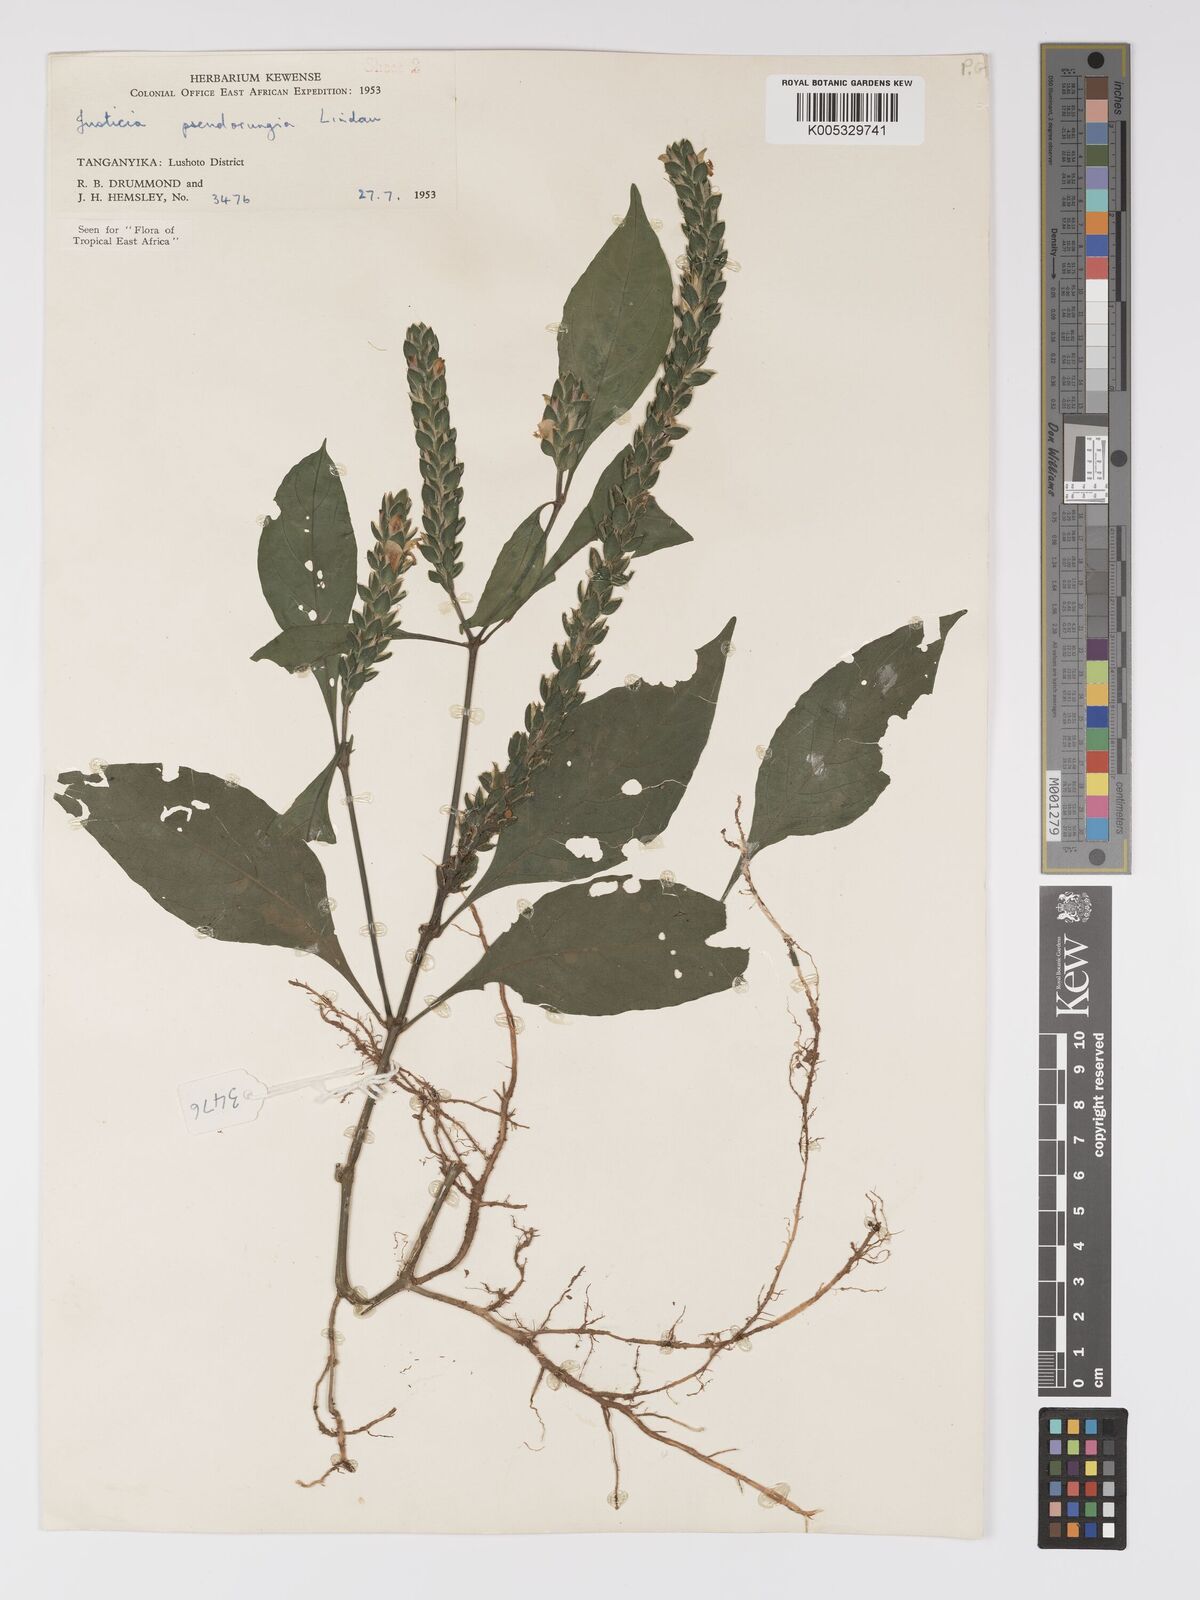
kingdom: Plantae
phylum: Tracheophyta
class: Magnoliopsida
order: Lamiales
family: Acanthaceae
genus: Justicia
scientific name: Justicia pseudorungia
